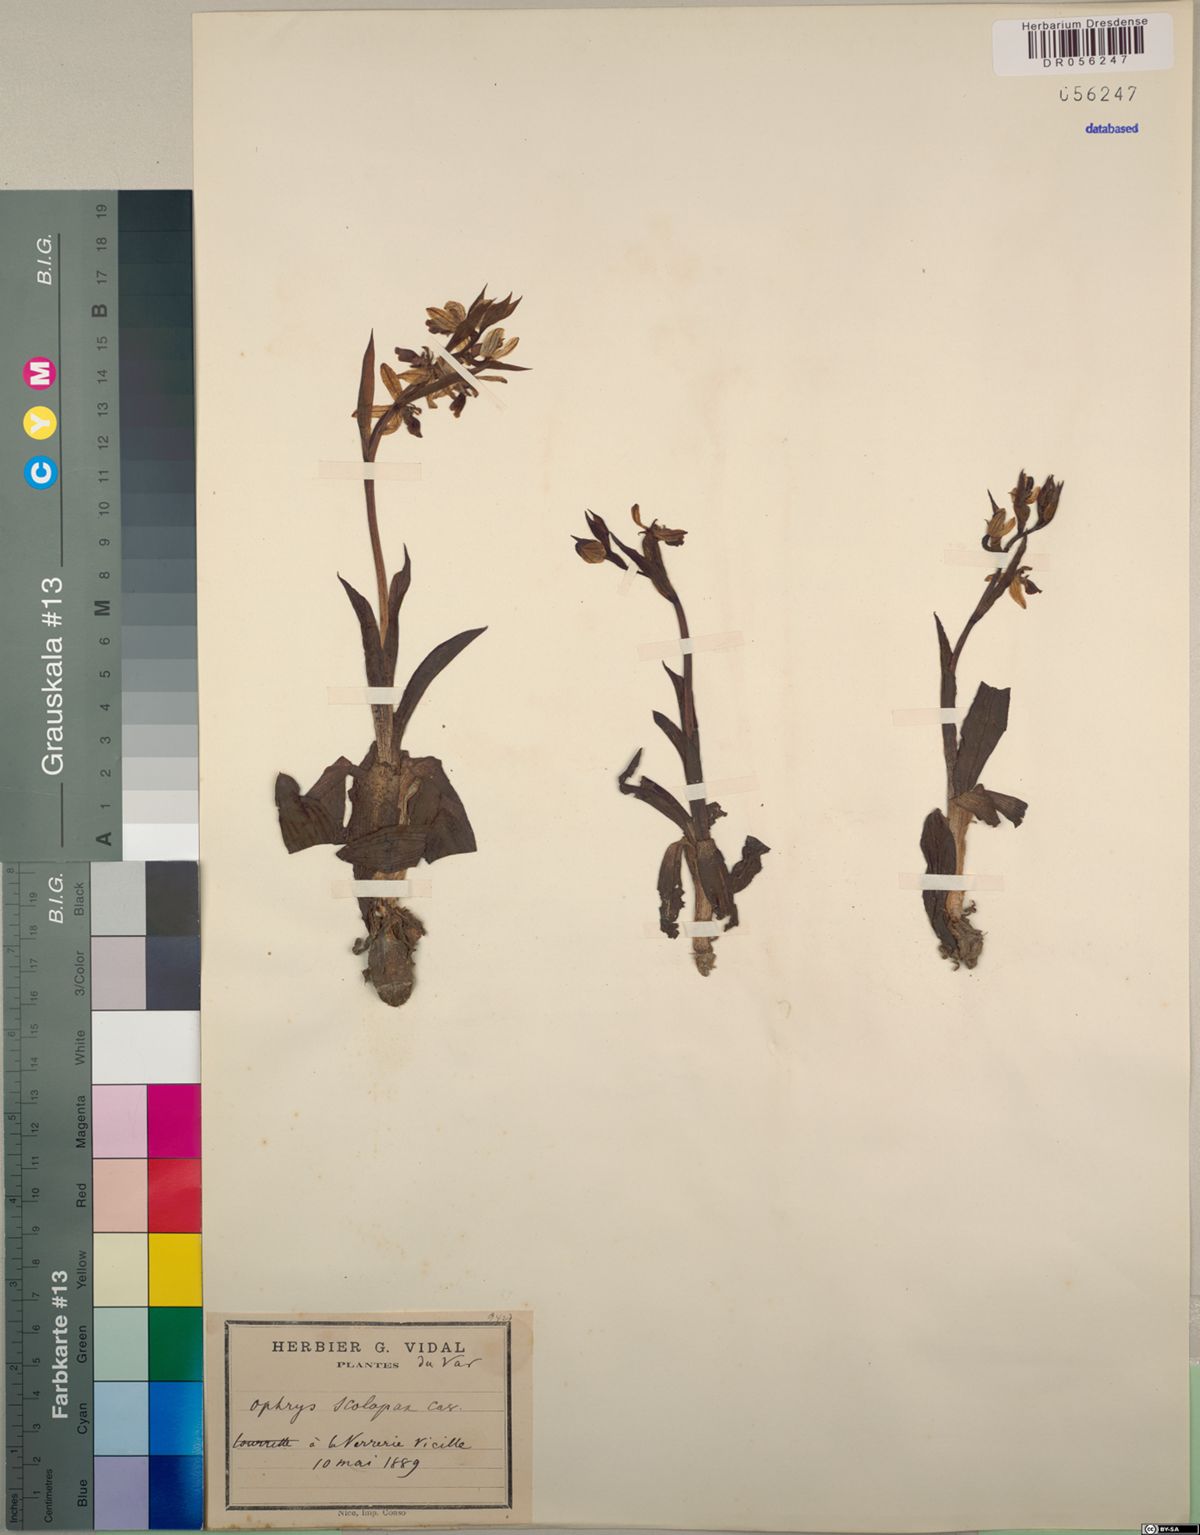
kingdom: Plantae
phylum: Tracheophyta
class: Liliopsida
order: Asparagales
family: Orchidaceae
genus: Ophrys
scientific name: Ophrys scolopax
